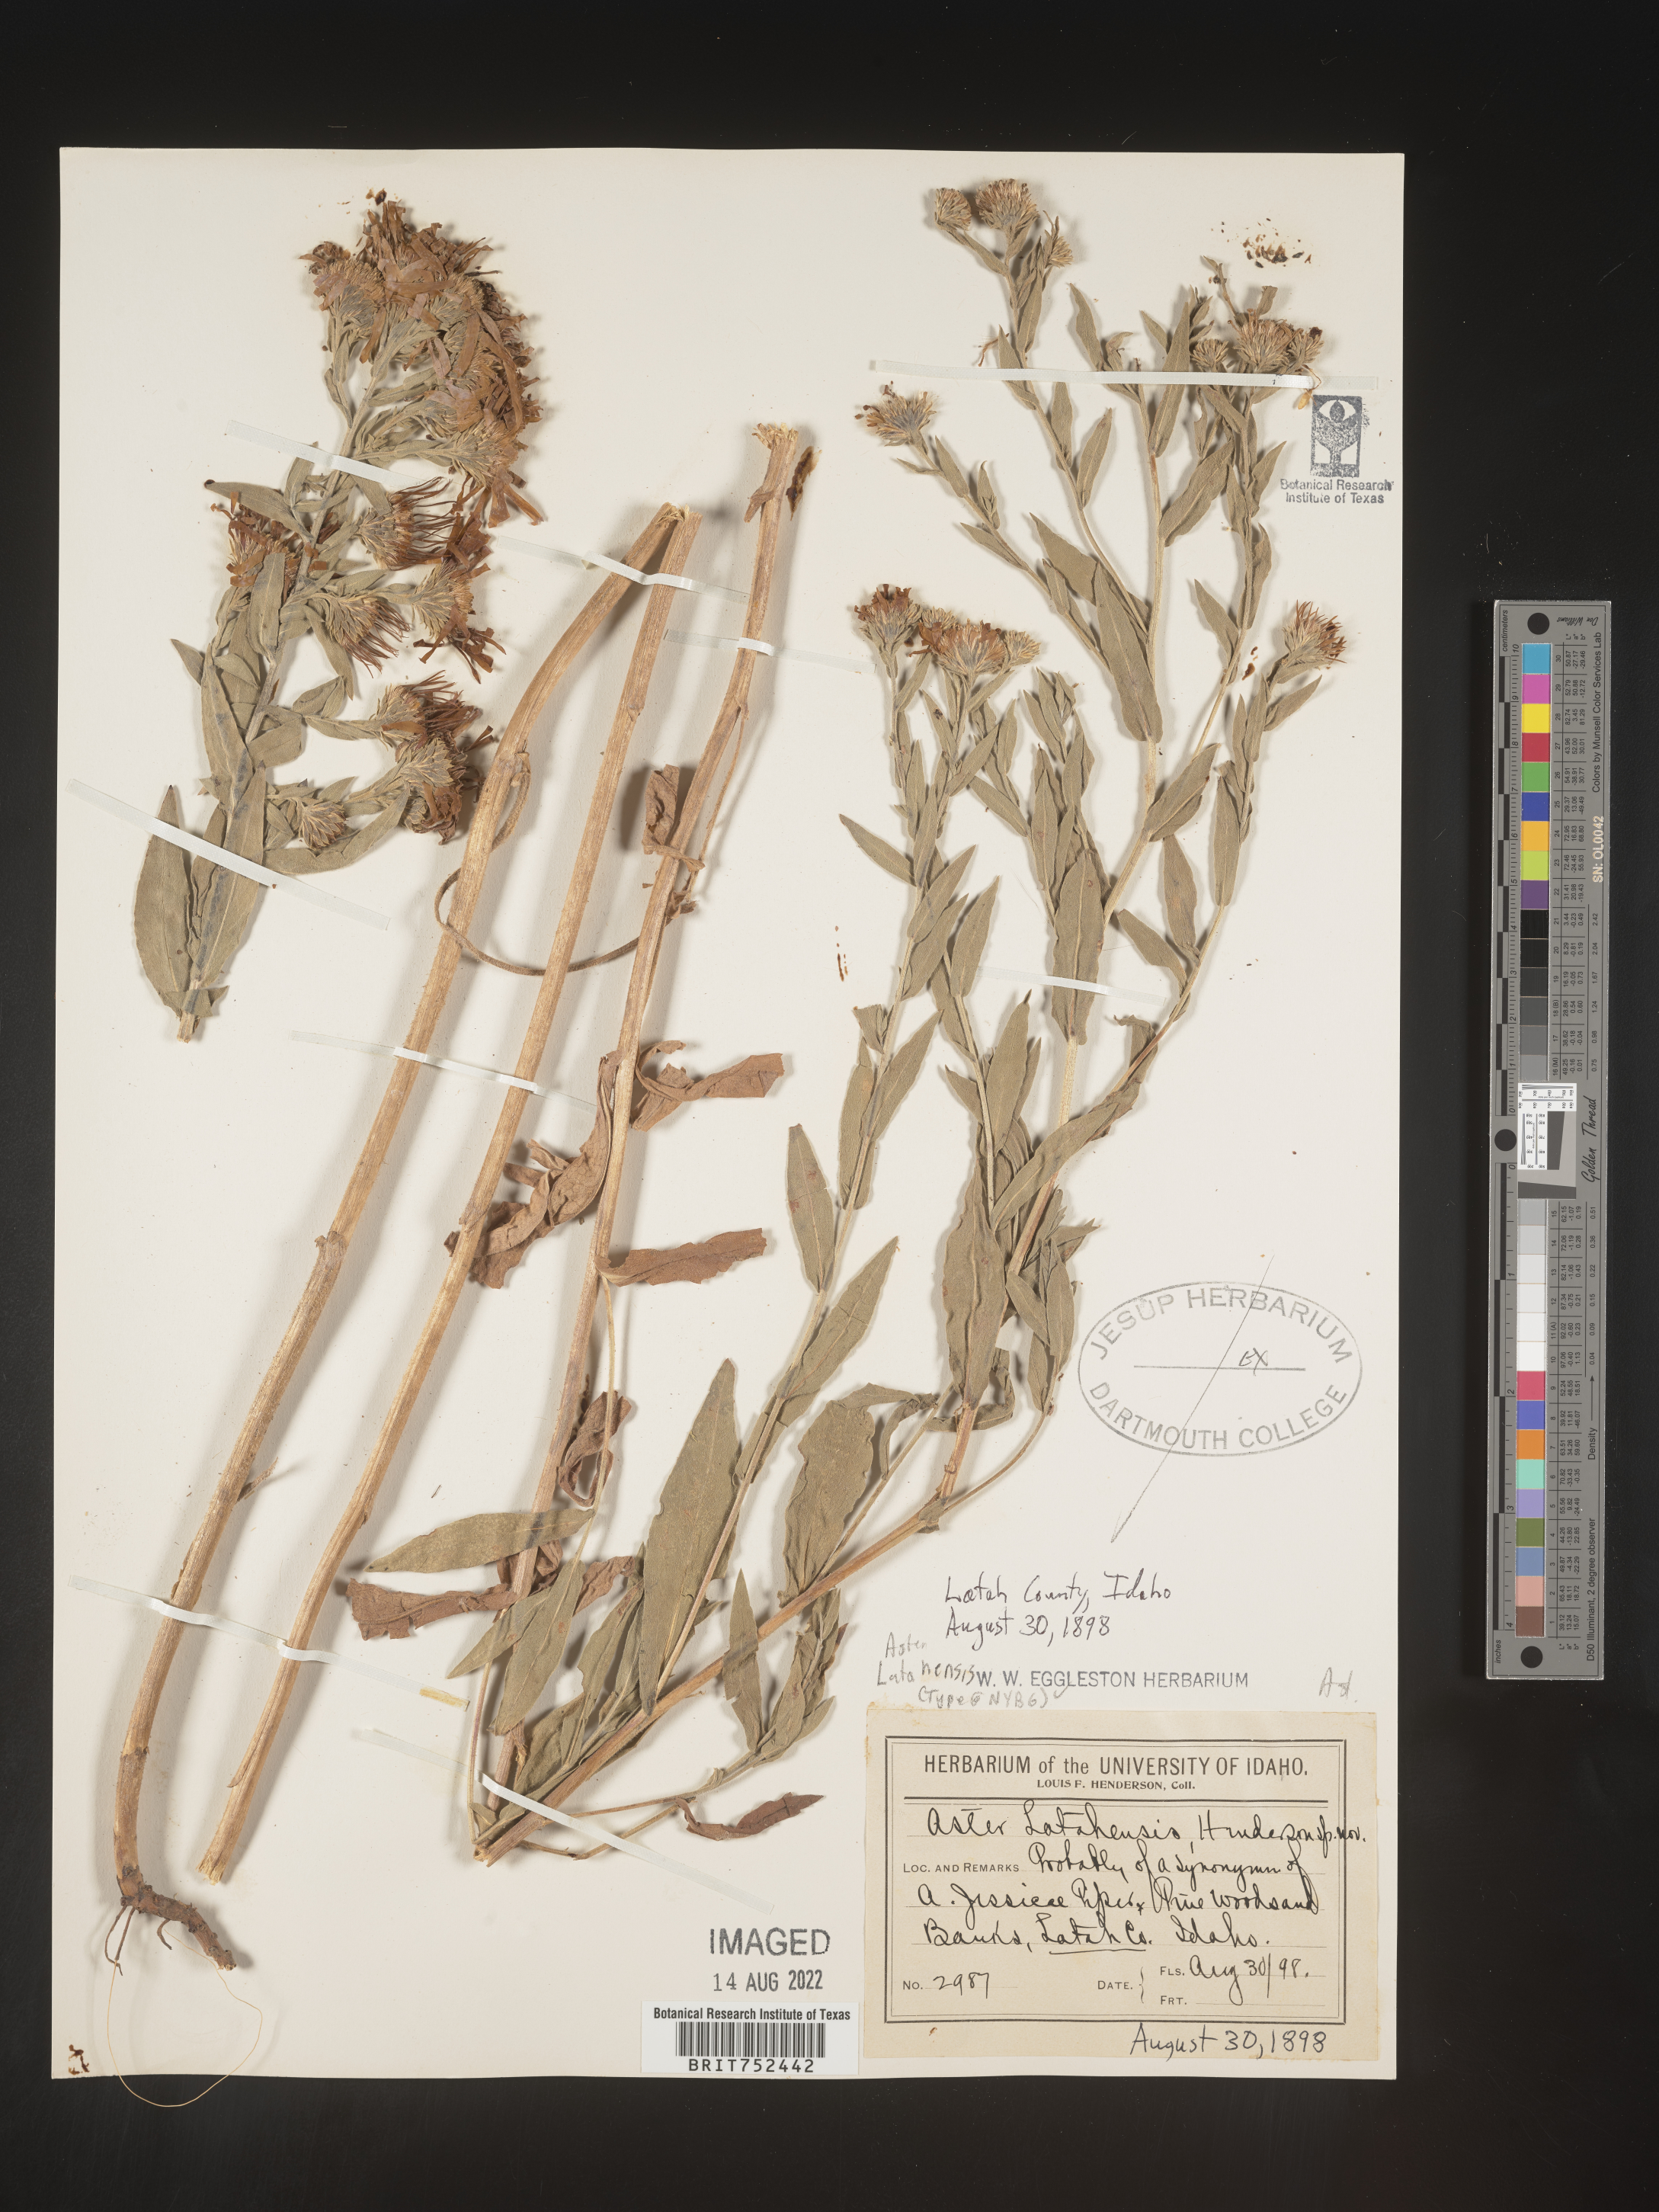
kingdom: Plantae
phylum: Tracheophyta
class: Magnoliopsida
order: Asterales
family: Asteraceae
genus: Symphyotrichum
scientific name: Symphyotrichum jessicae
